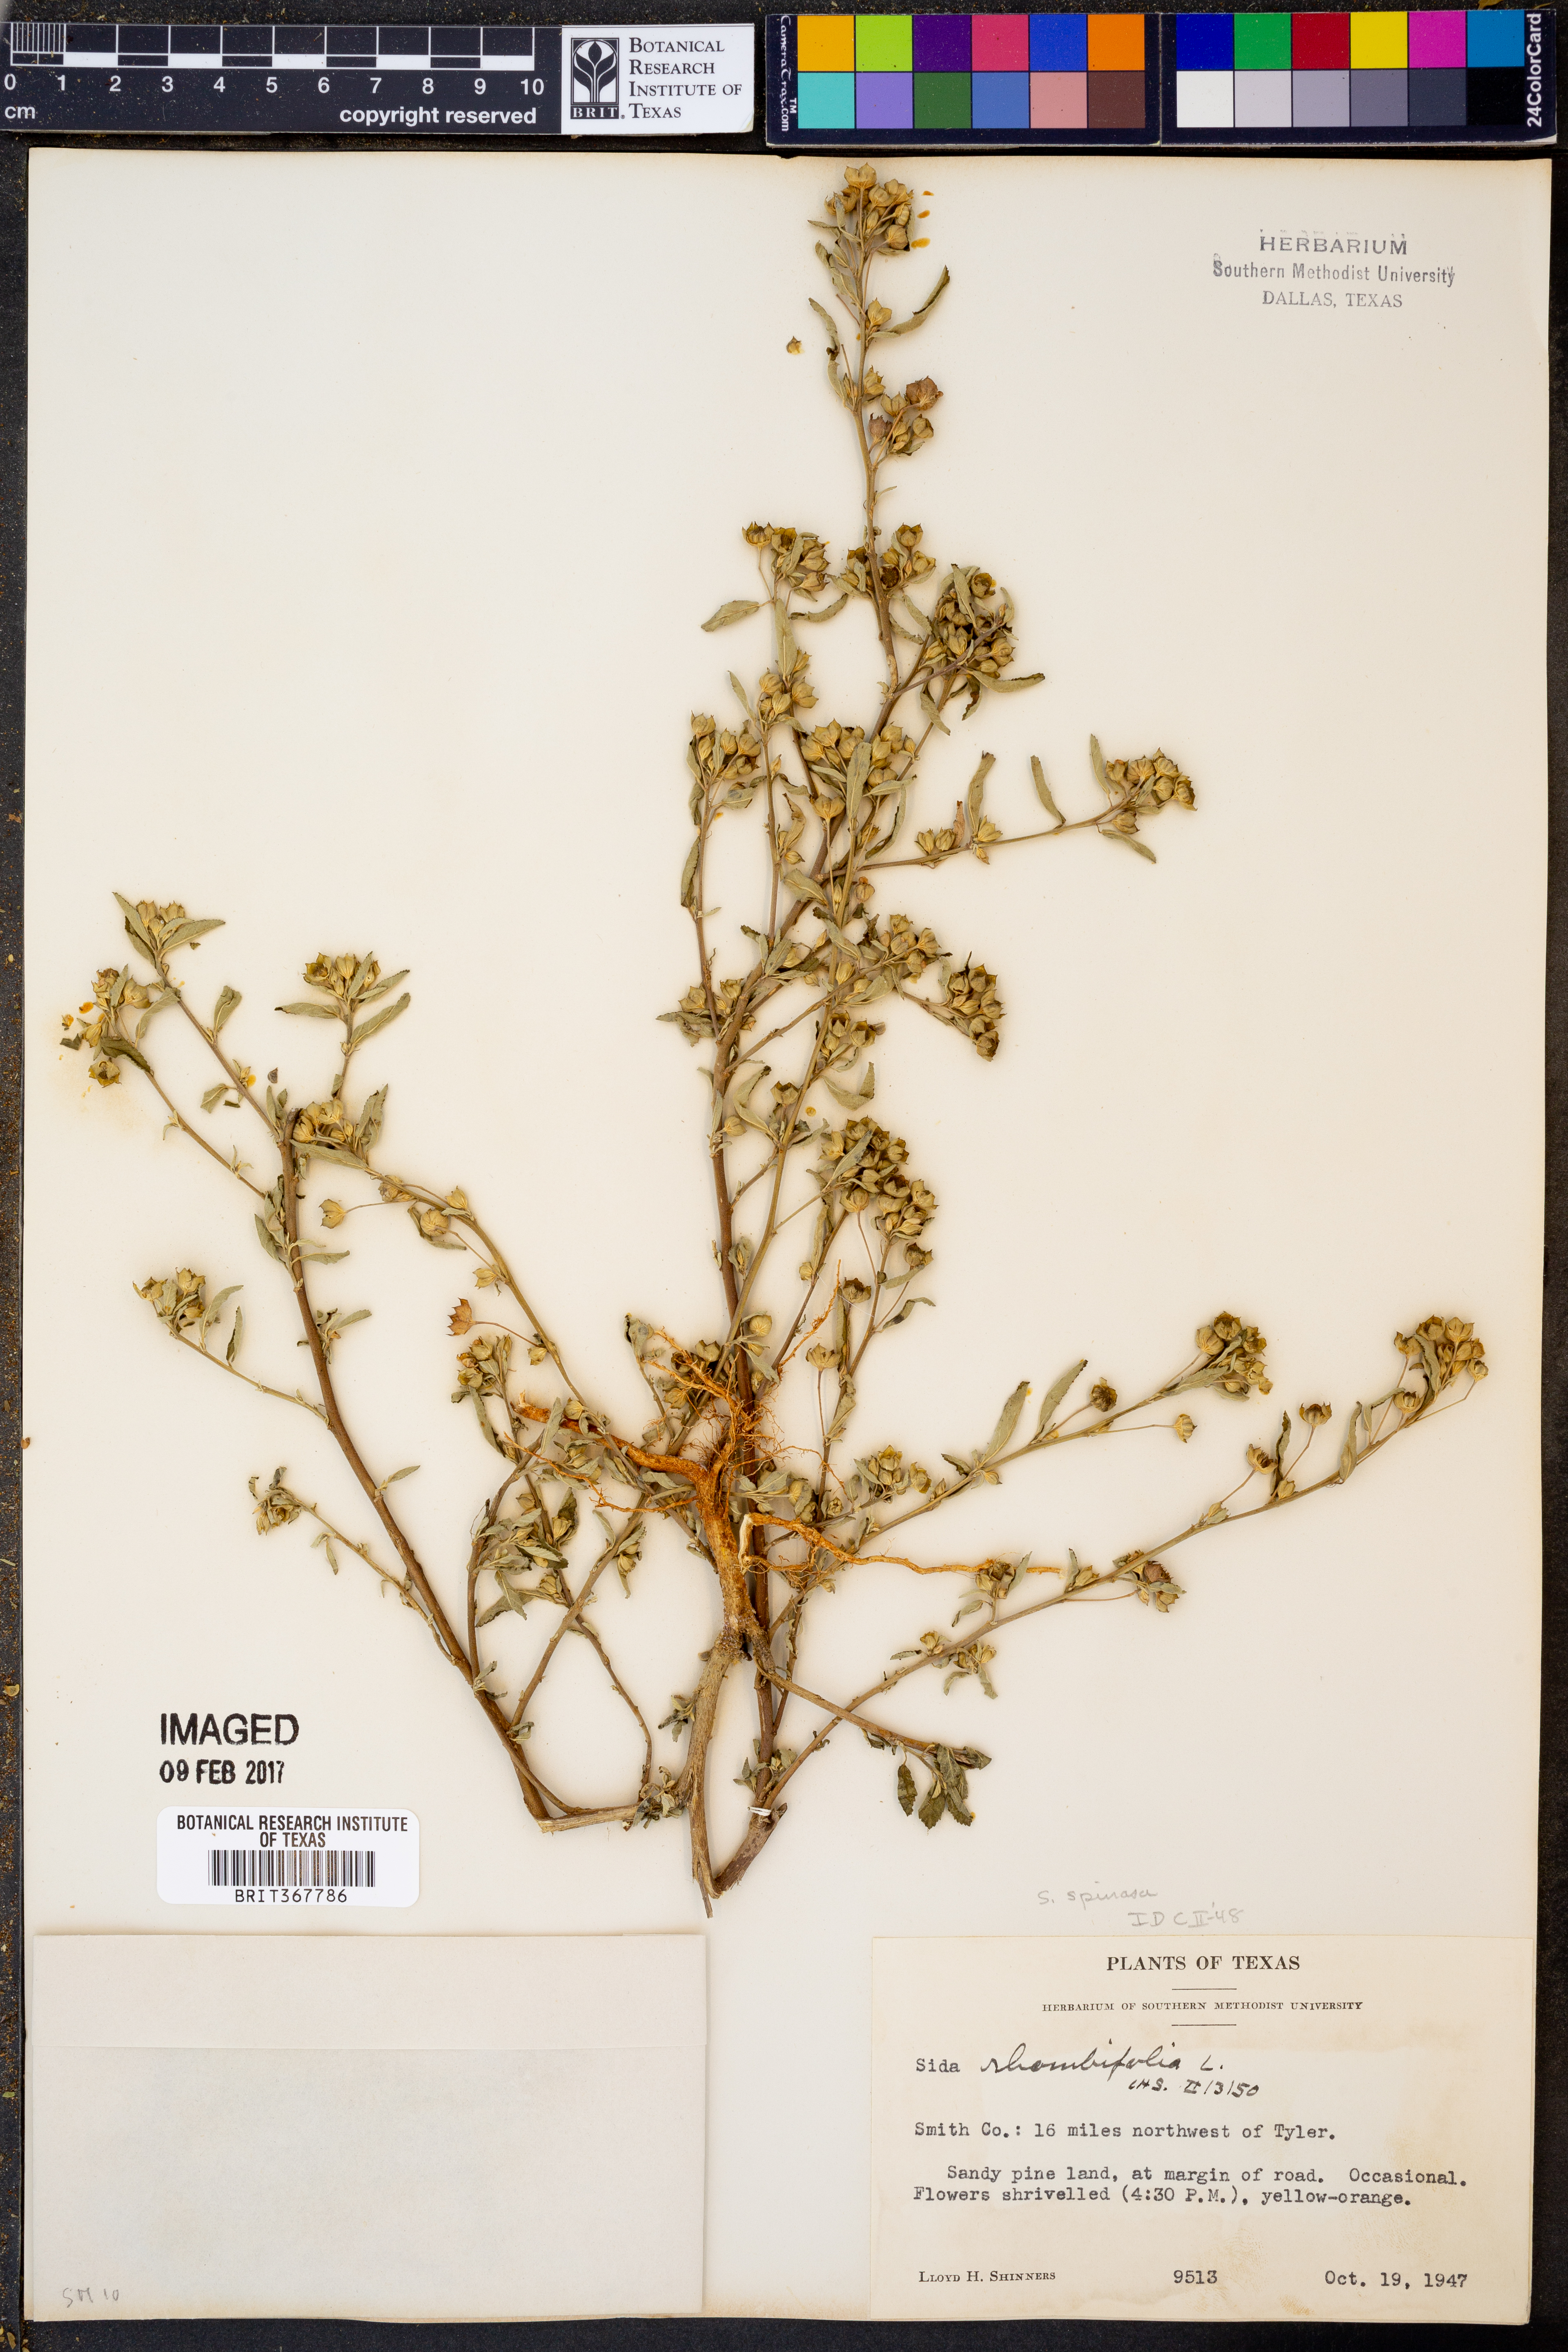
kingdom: Plantae
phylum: Tracheophyta
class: Magnoliopsida
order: Malvales
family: Malvaceae
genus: Sida
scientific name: Sida rhombifolia
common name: Queensland-hemp
